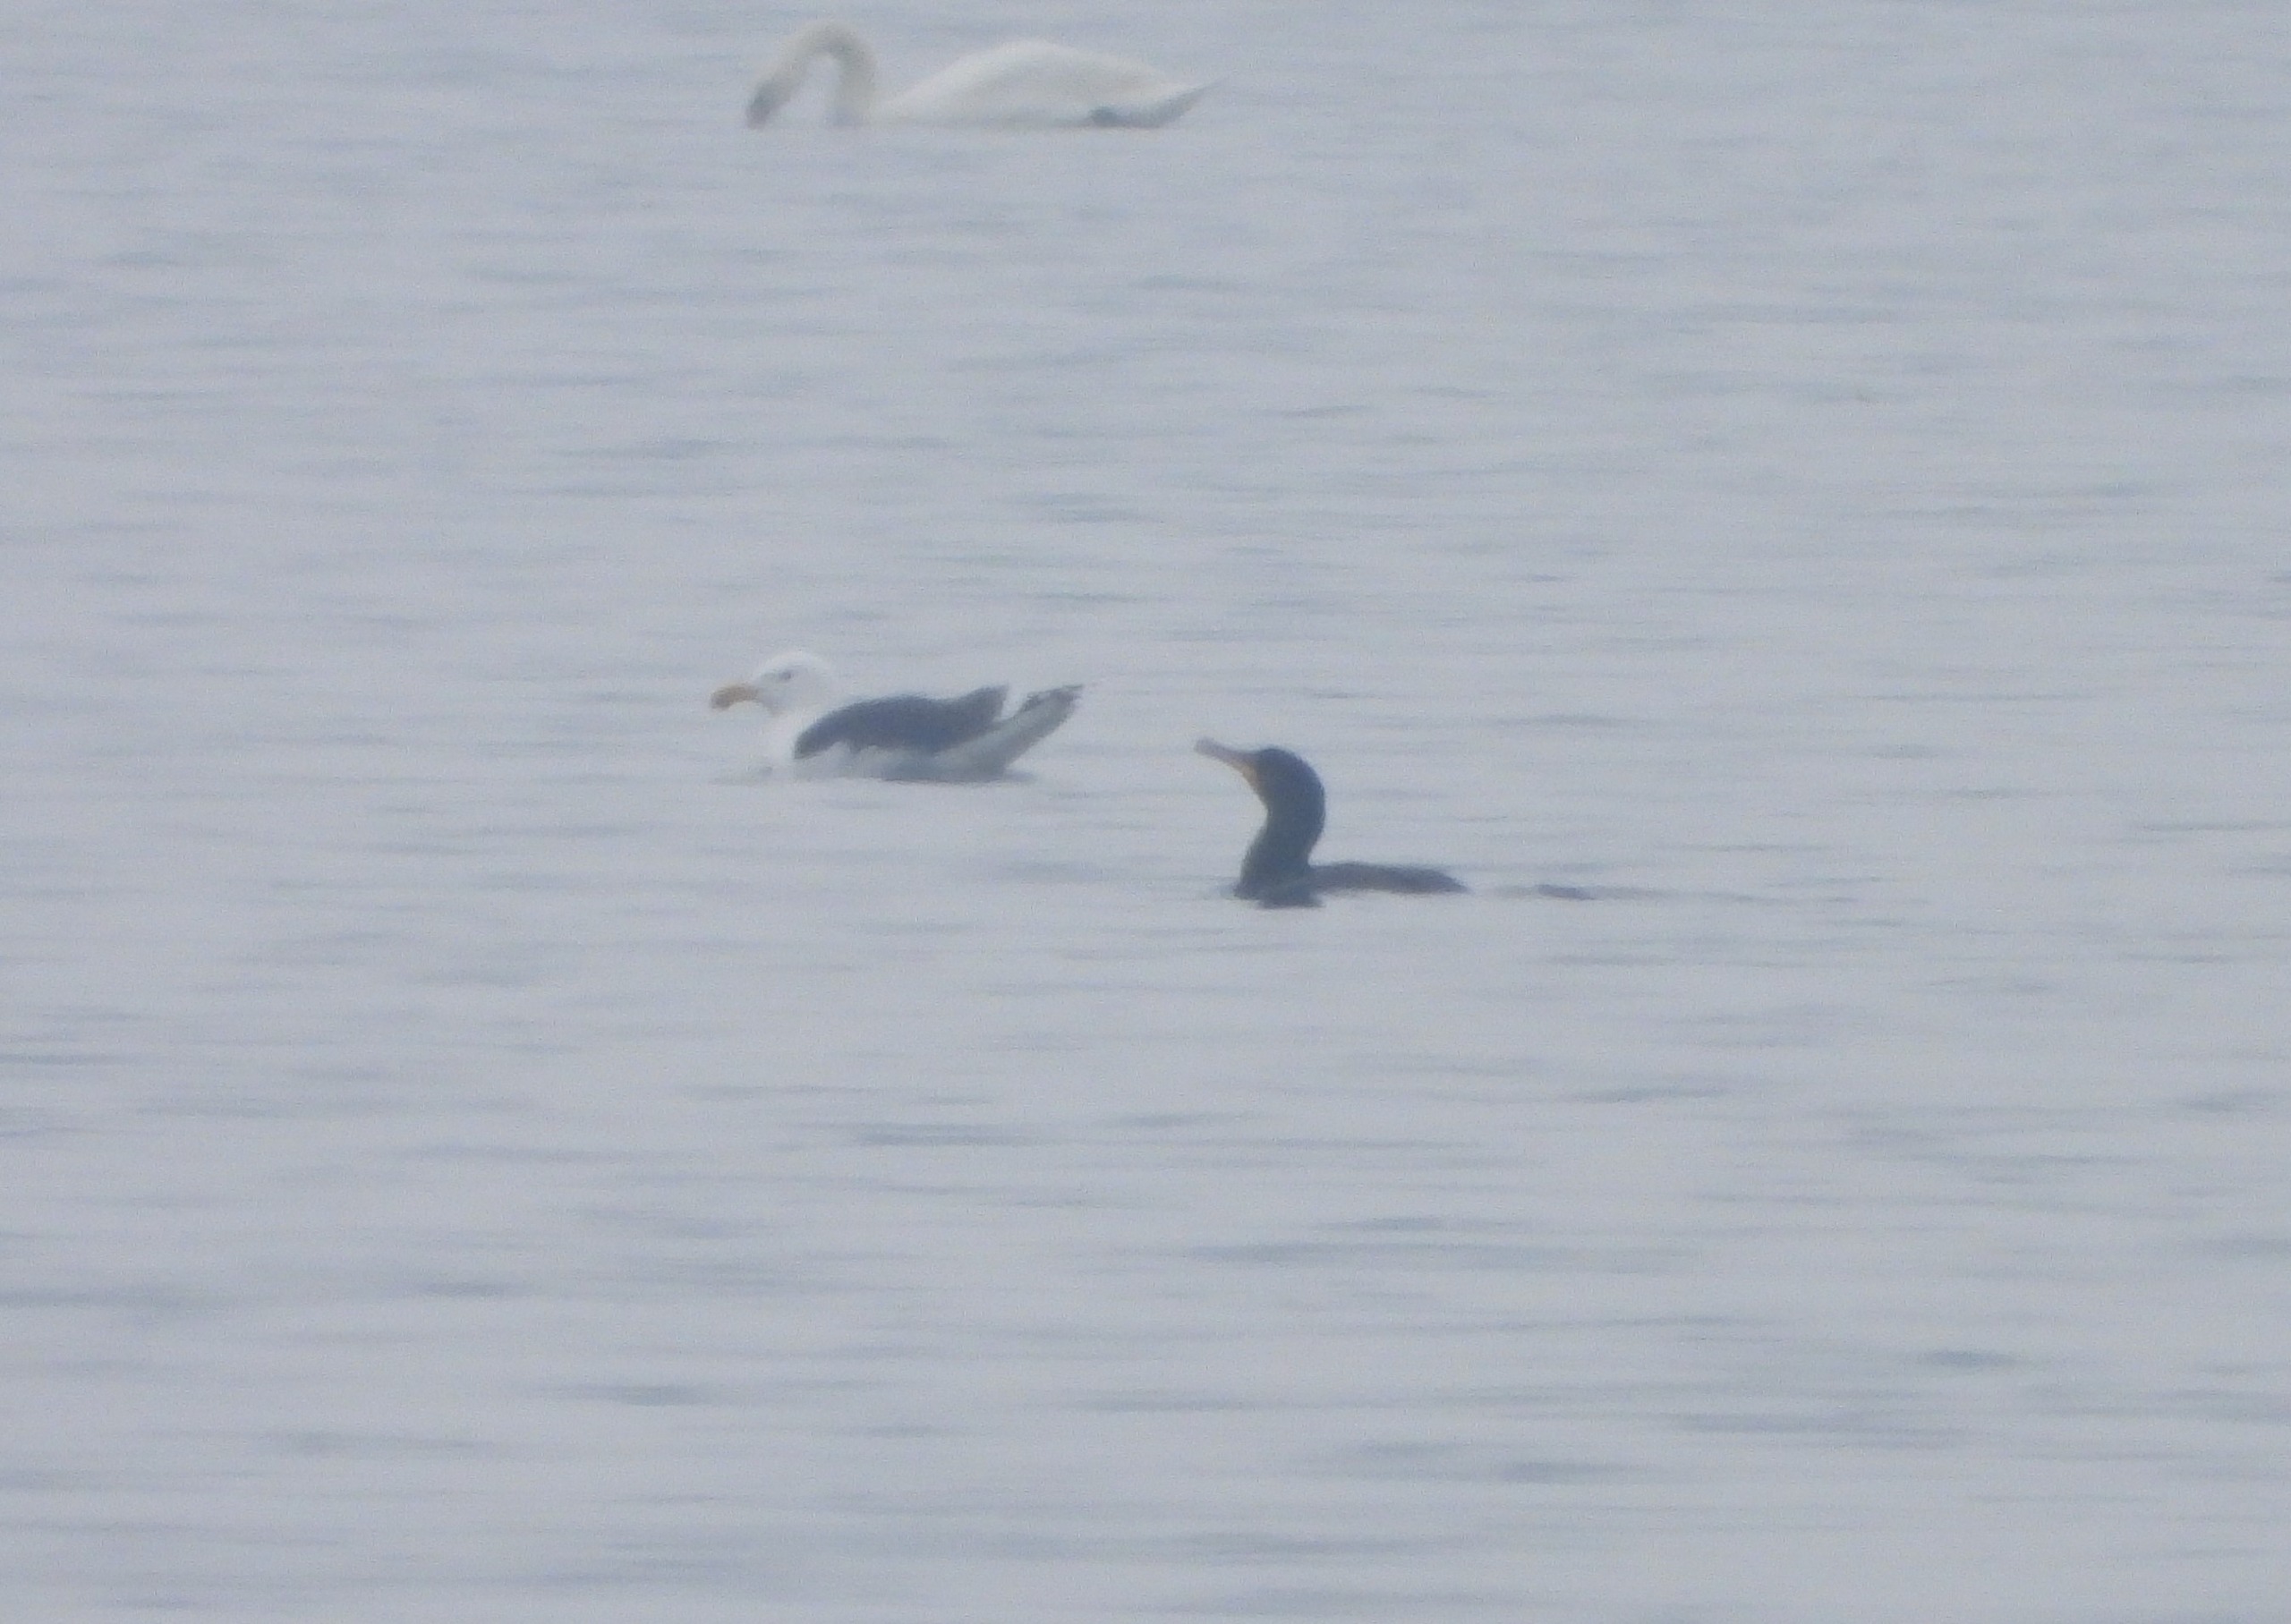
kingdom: Animalia
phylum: Chordata
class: Aves
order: Suliformes
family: Phalacrocoracidae
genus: Phalacrocorax
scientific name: Phalacrocorax carbo
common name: Skarv
